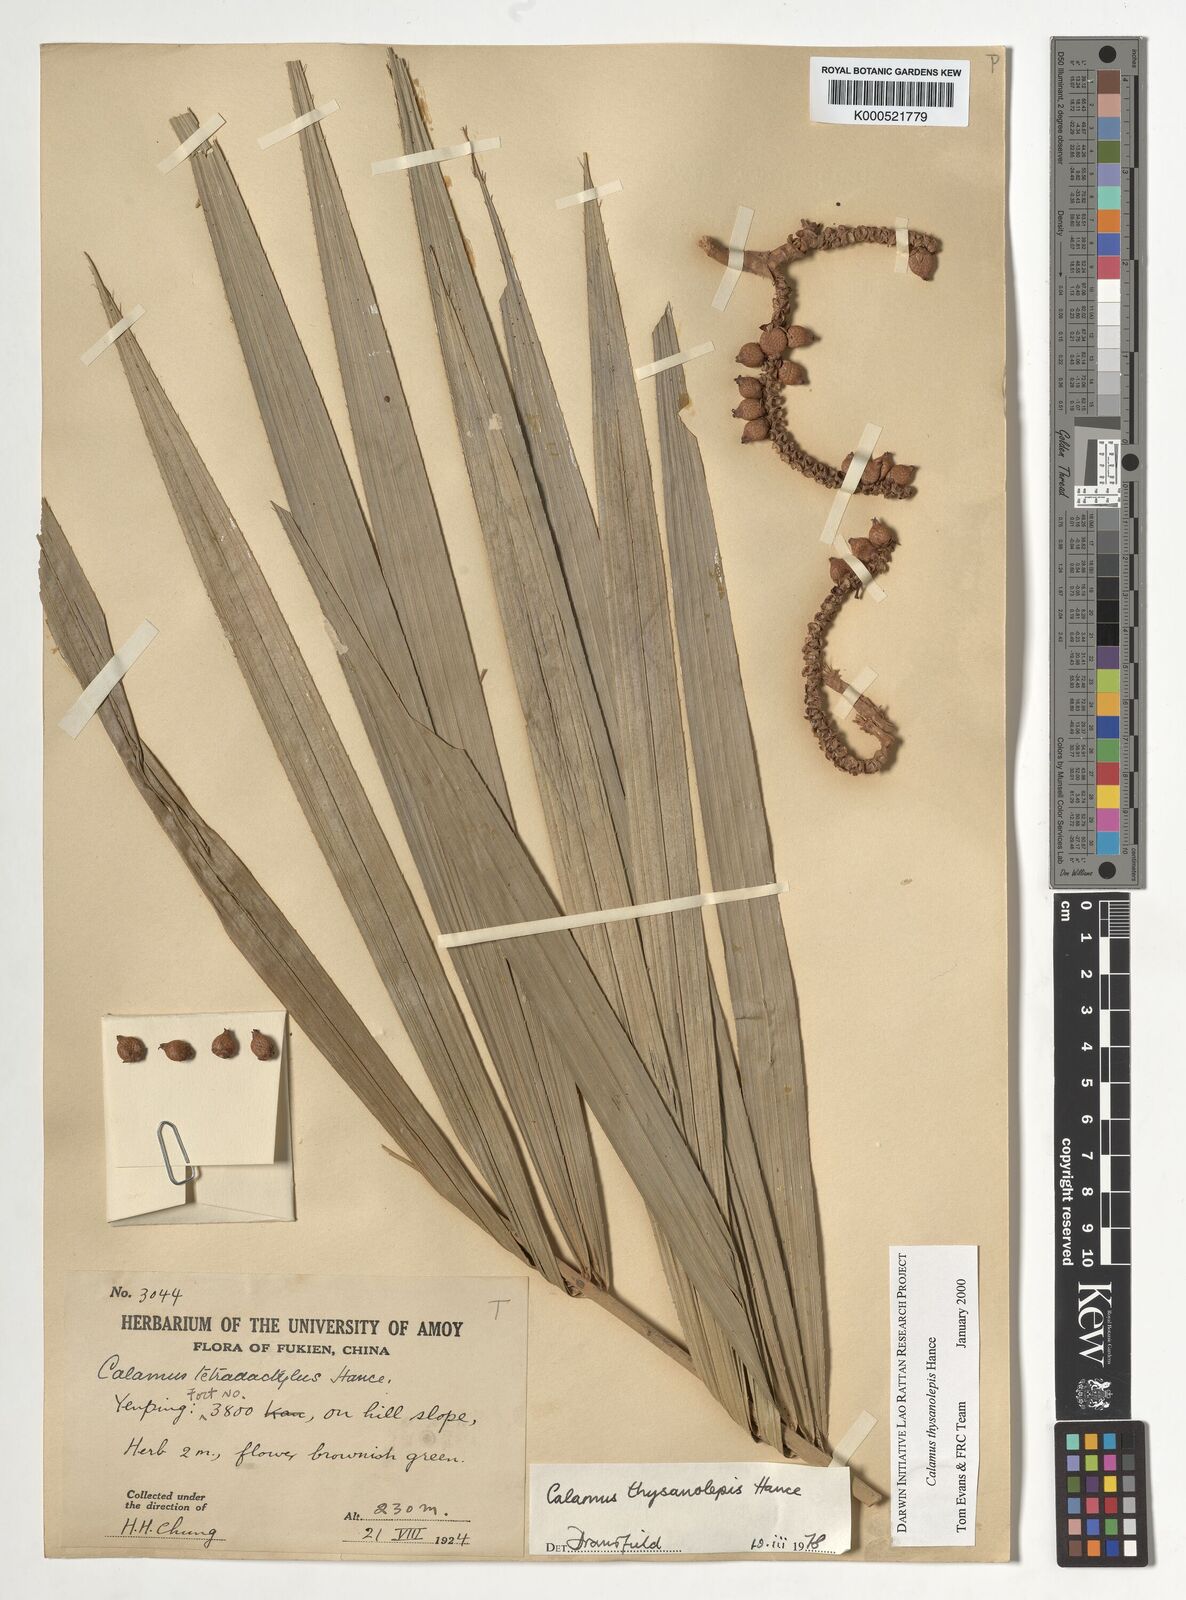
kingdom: Plantae
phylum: Tracheophyta
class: Liliopsida
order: Arecales
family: Arecaceae
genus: Calamus
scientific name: Calamus thysanolepis
